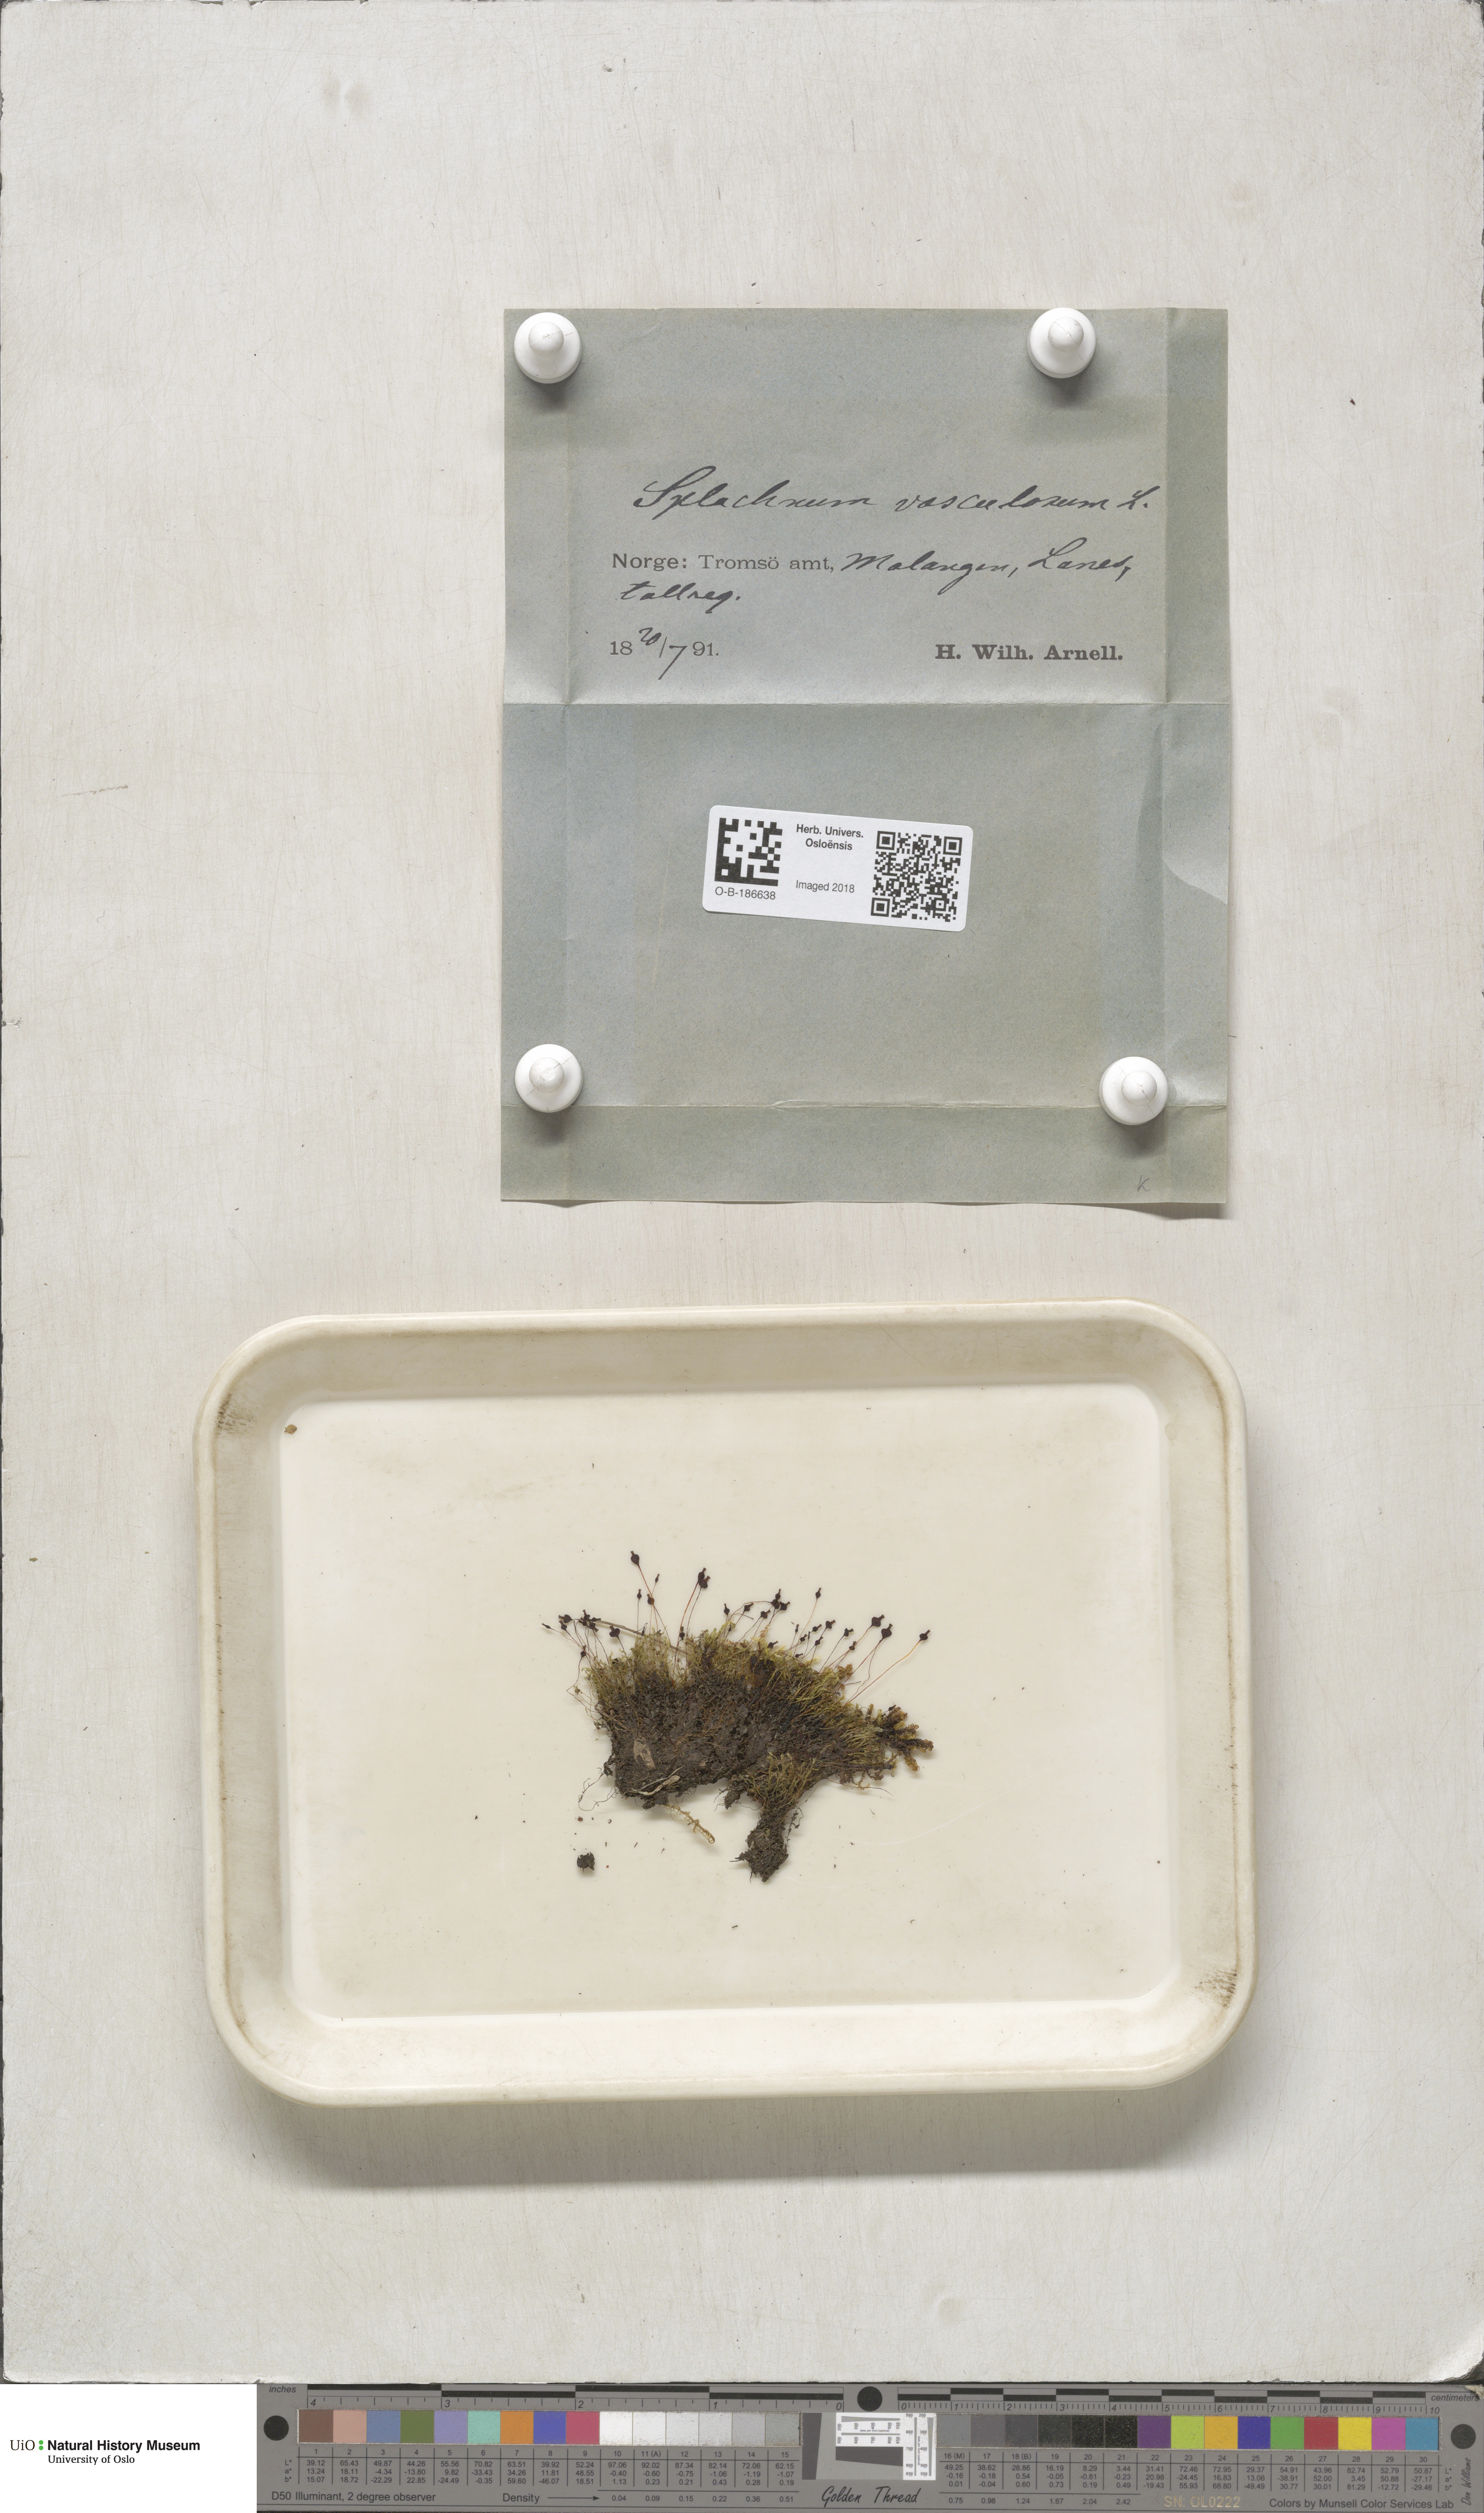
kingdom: Plantae
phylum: Bryophyta
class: Bryopsida
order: Splachnales
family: Splachnaceae
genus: Splachnum
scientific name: Splachnum vasculosum
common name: Rugged dung moss
